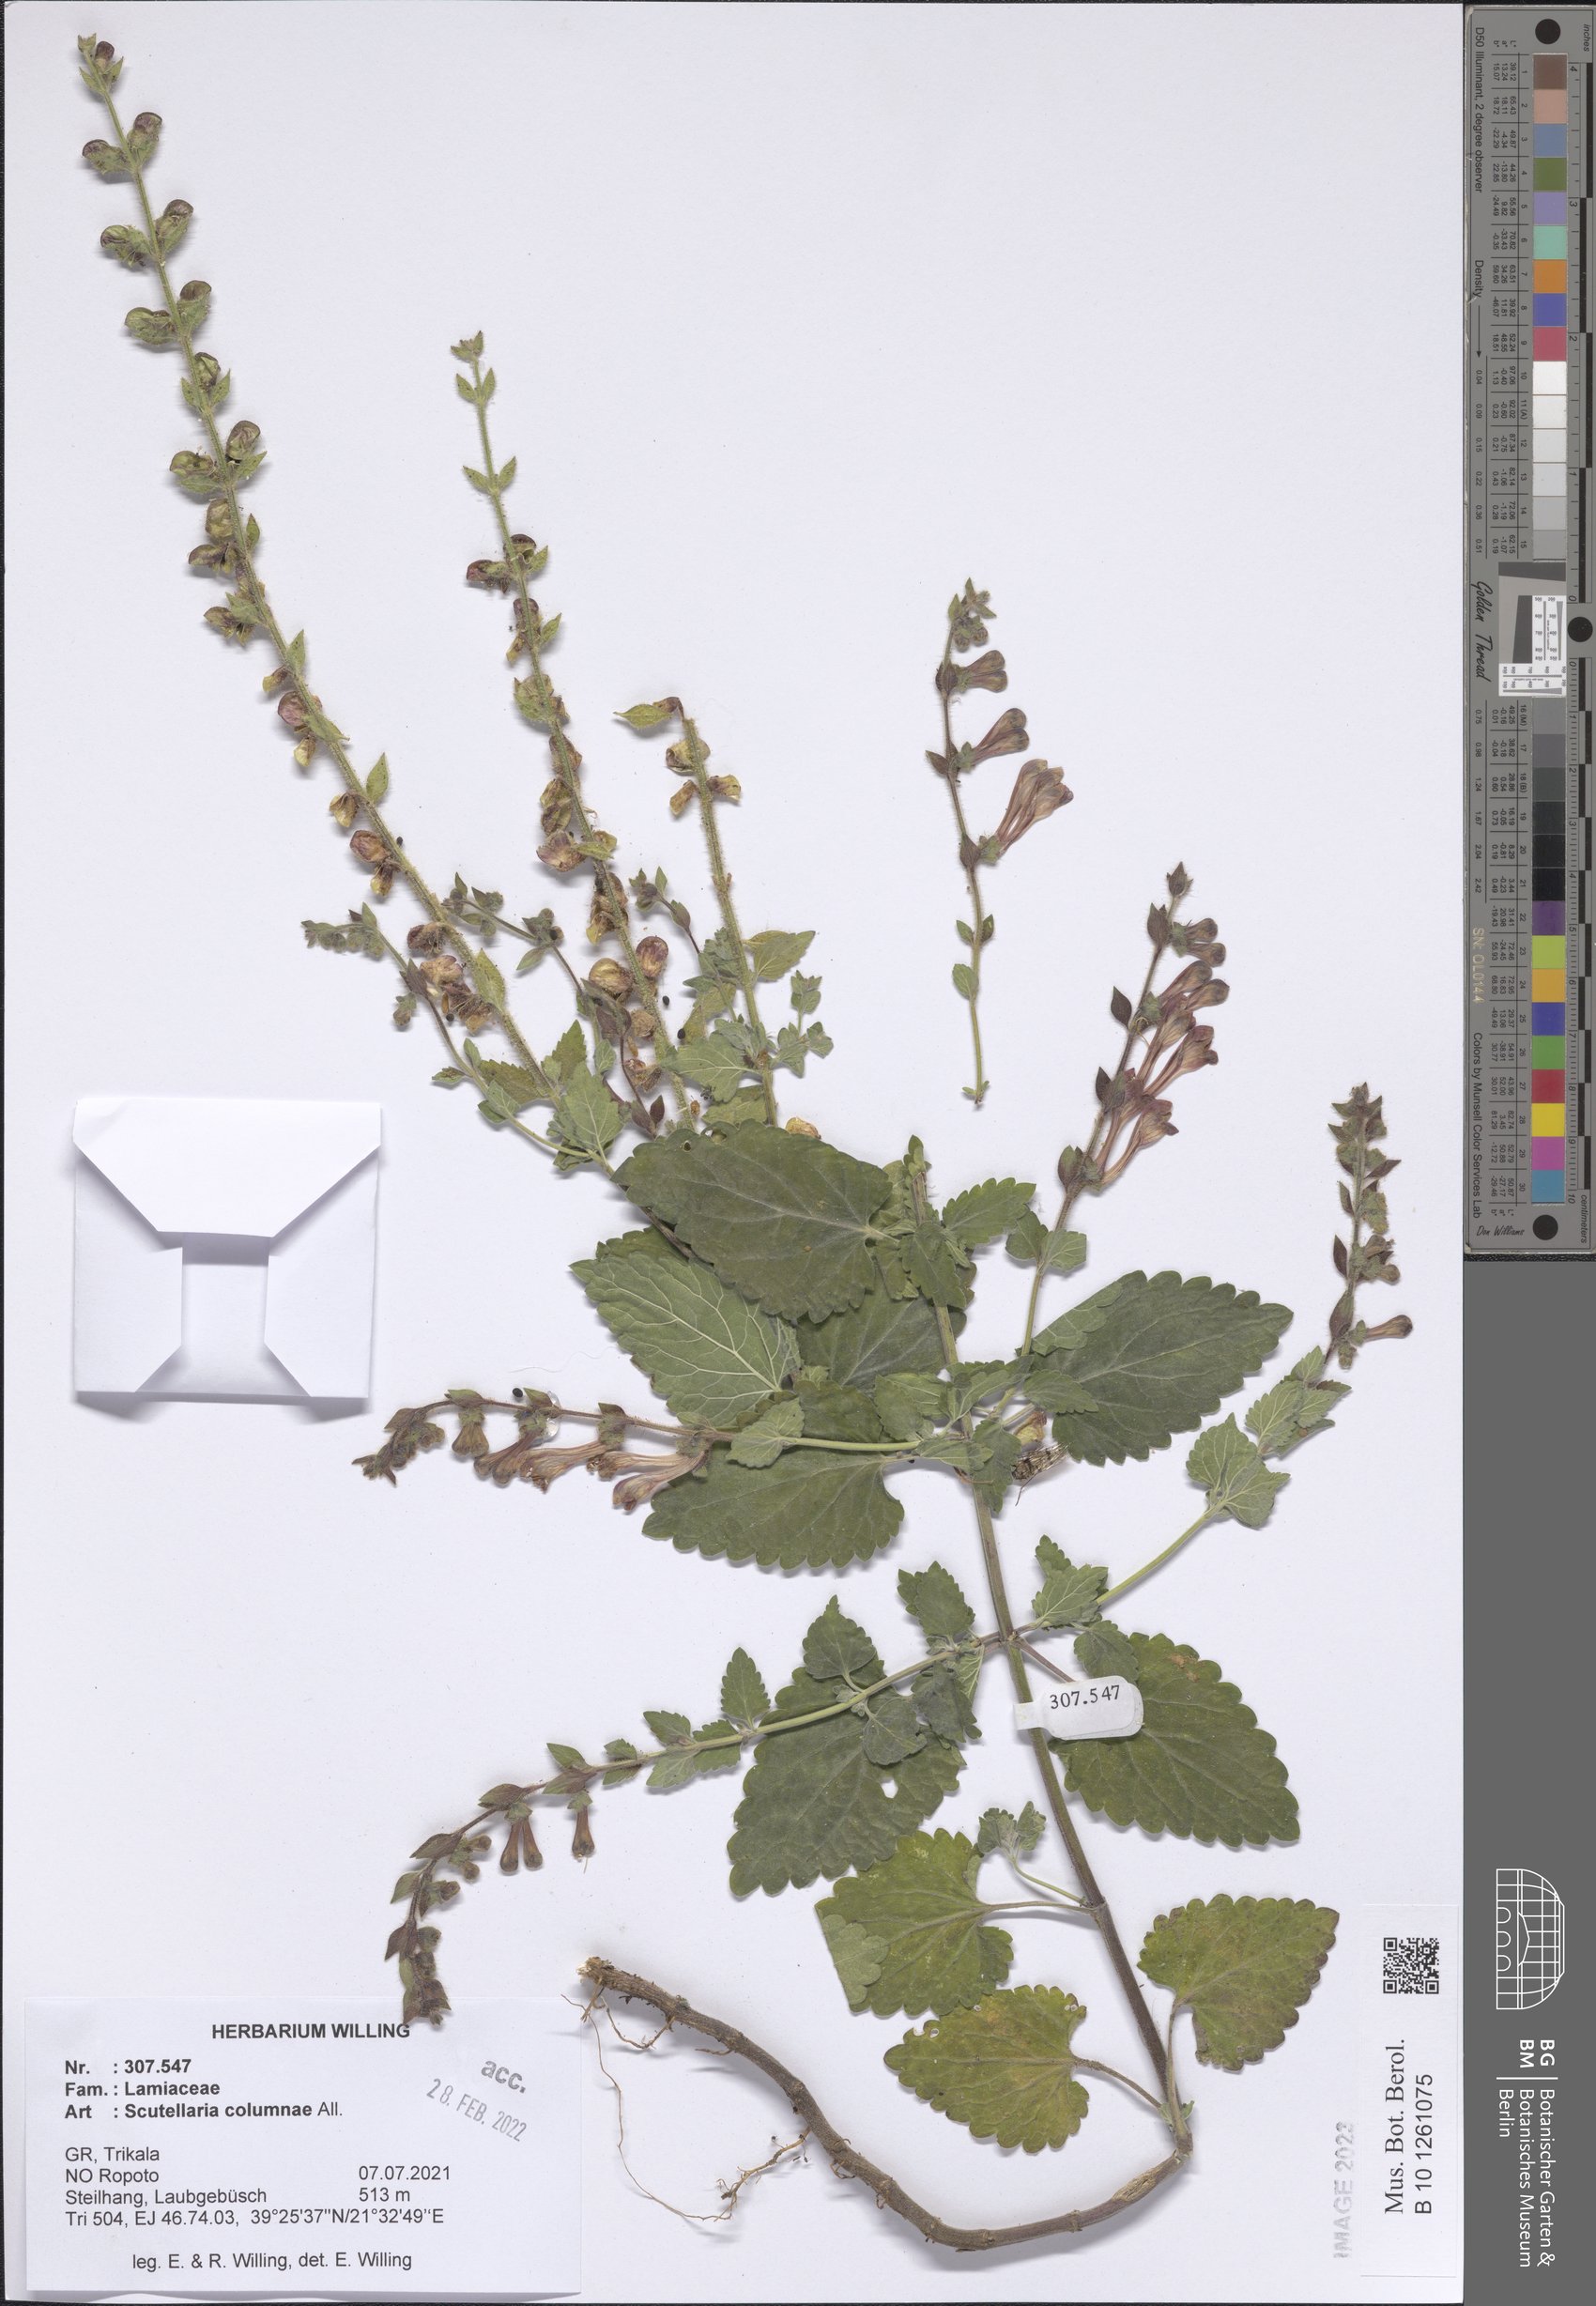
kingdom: Plantae
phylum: Tracheophyta
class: Magnoliopsida
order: Lamiales
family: Lamiaceae
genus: Scutellaria
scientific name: Scutellaria columnae
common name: Large skullcap
